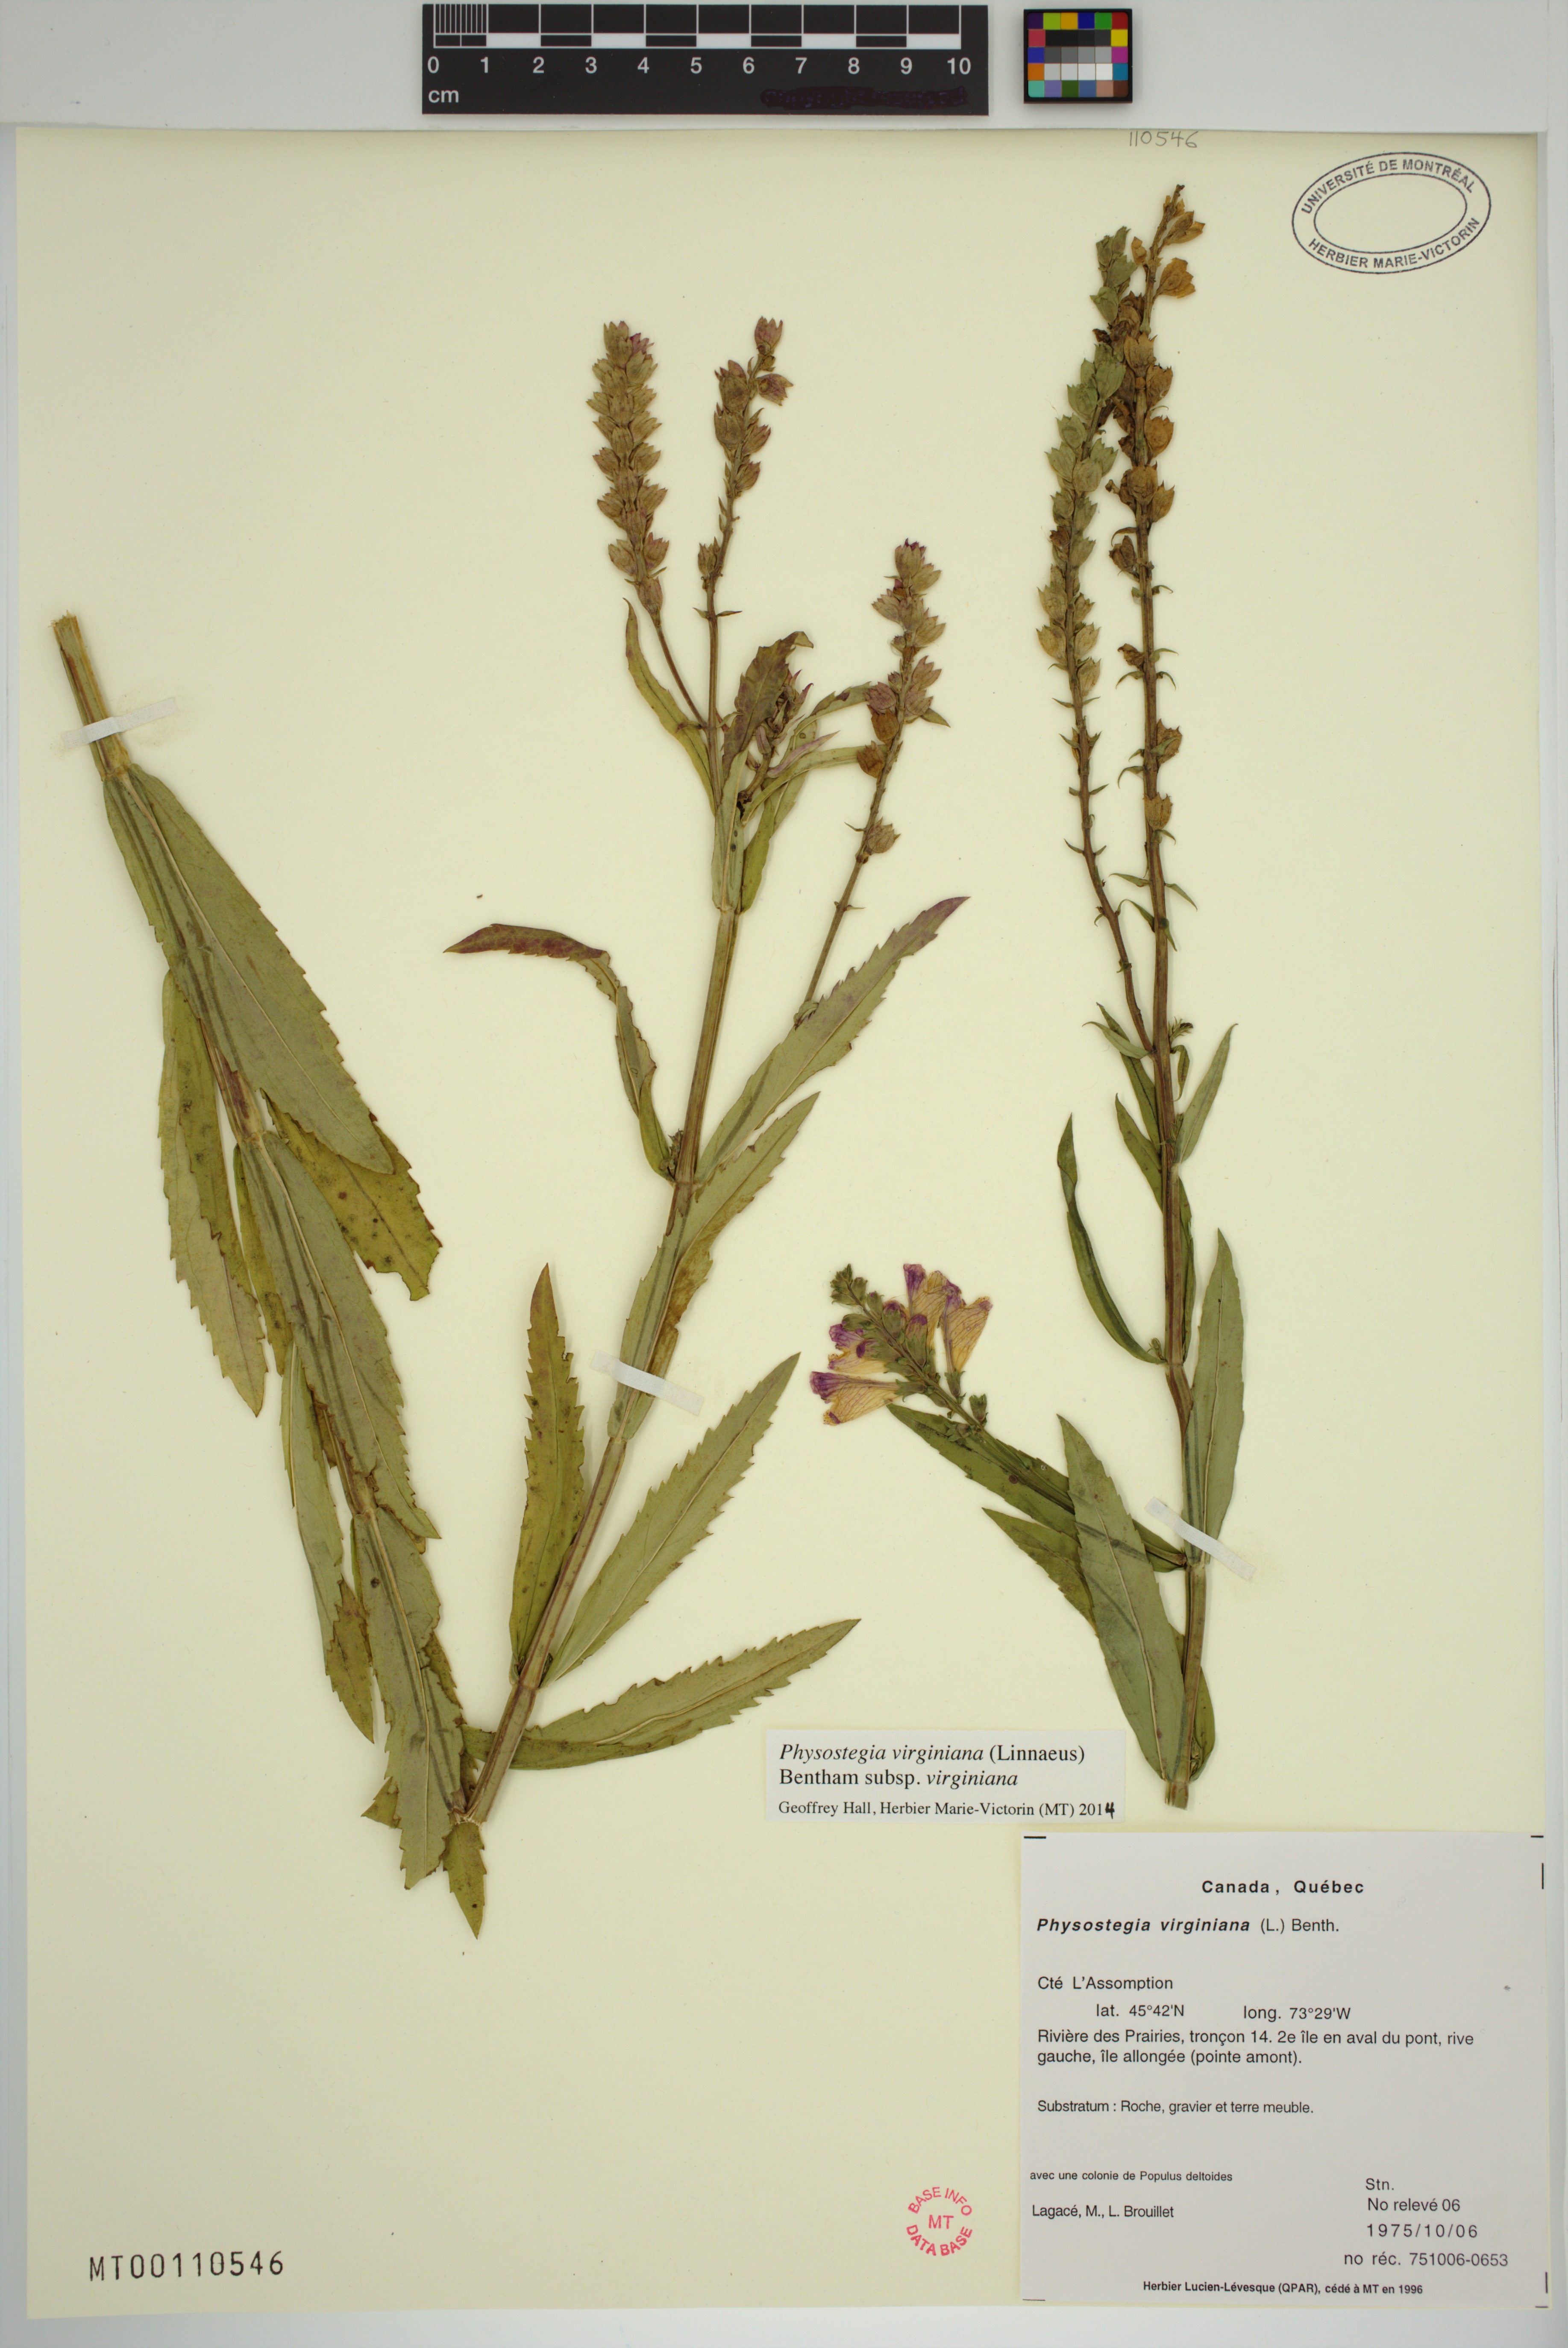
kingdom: Plantae
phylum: Tracheophyta
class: Magnoliopsida
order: Lamiales
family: Lamiaceae
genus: Physostegia
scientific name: Physostegia virginiana
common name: Obedient-plant
